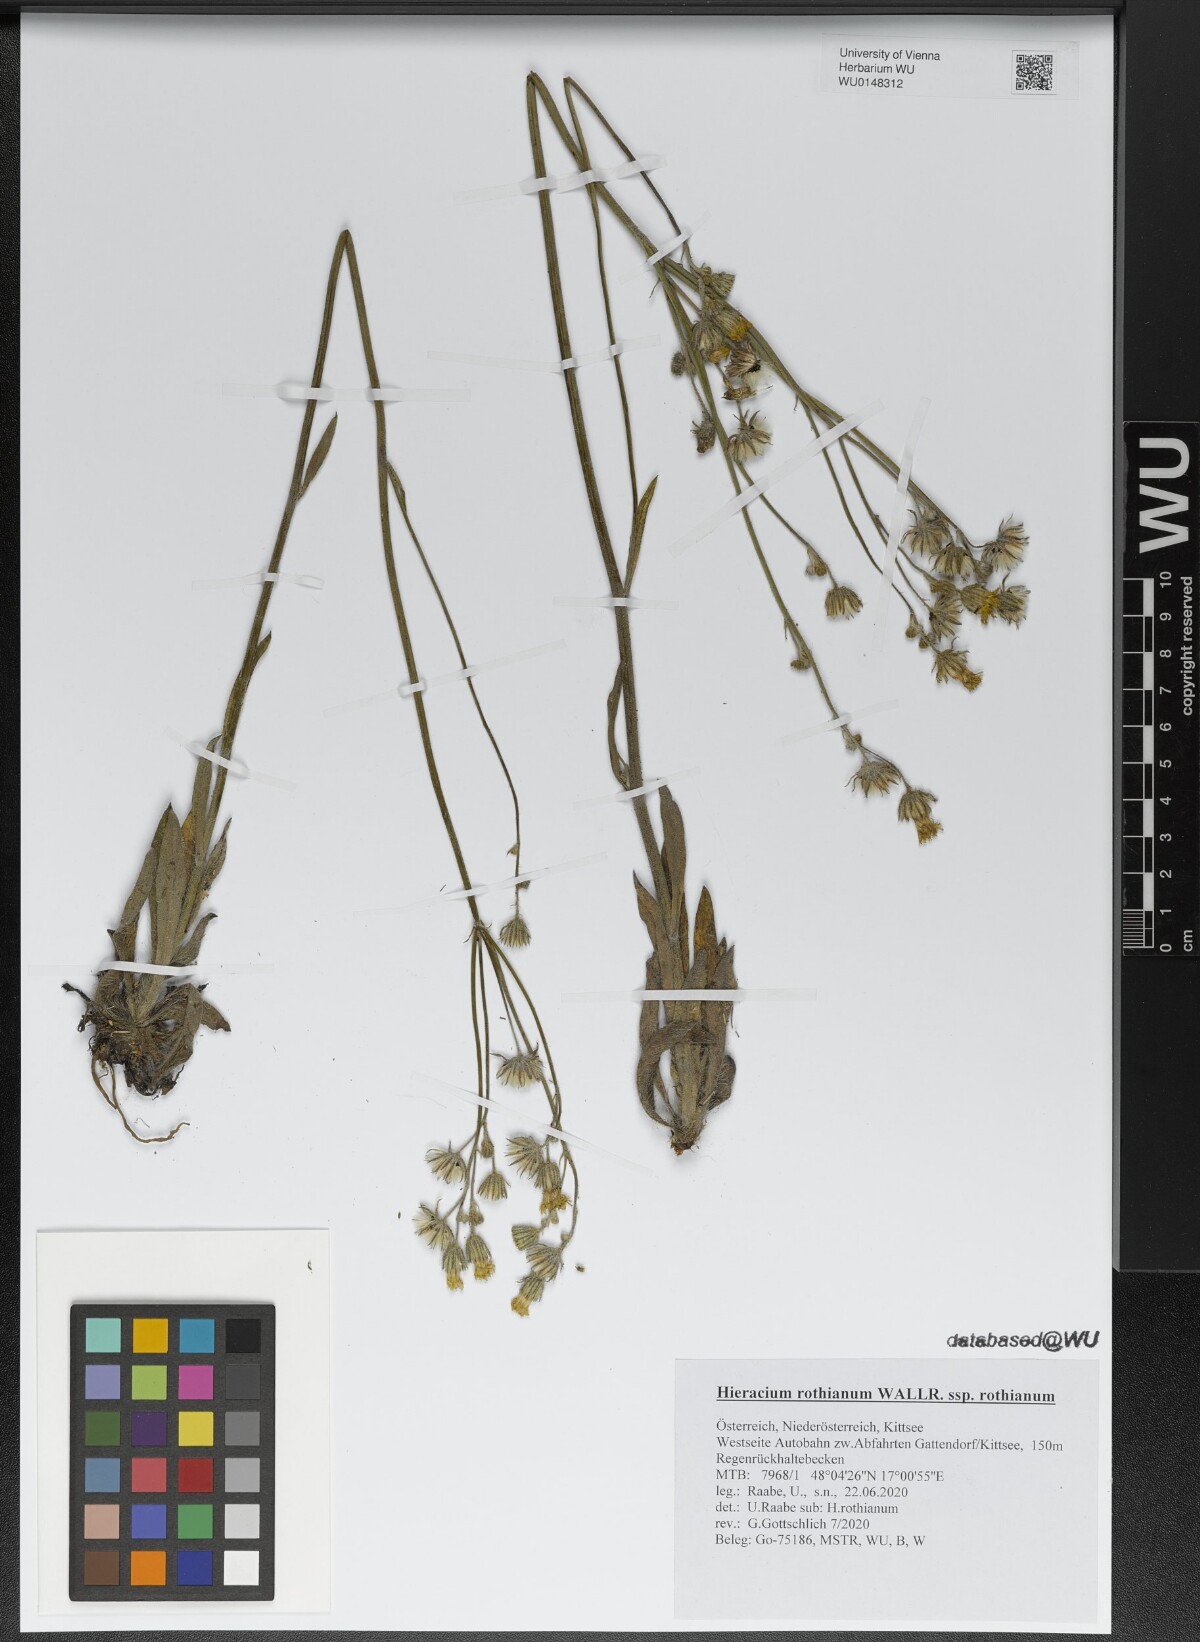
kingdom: Plantae
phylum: Tracheophyta
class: Magnoliopsida
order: Asterales
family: Asteraceae
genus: Pilosella
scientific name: Pilosella rothiana
